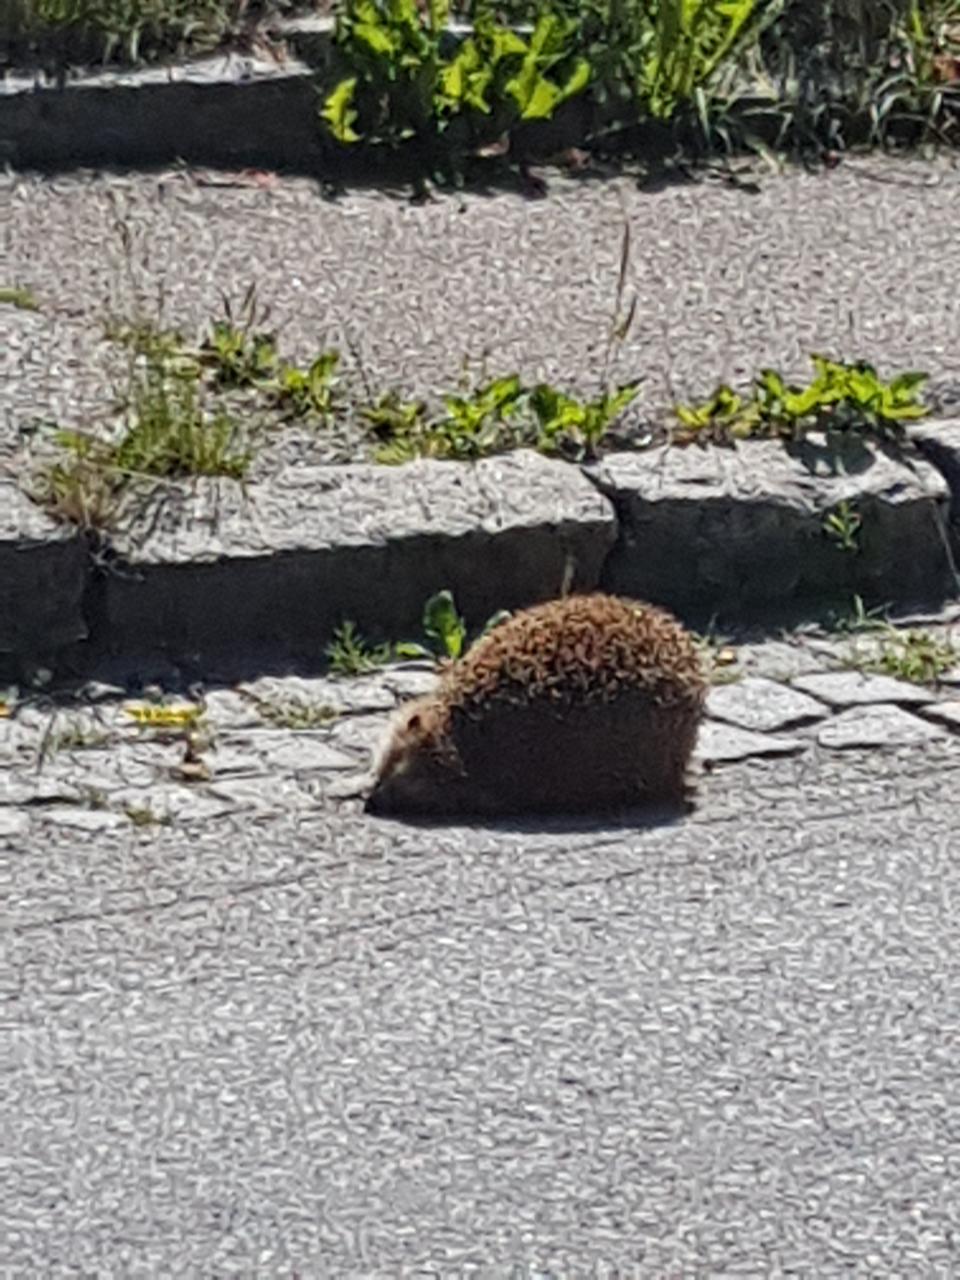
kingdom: Animalia
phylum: Chordata
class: Mammalia
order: Erinaceomorpha
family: Erinaceidae
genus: Erinaceus
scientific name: Erinaceus
